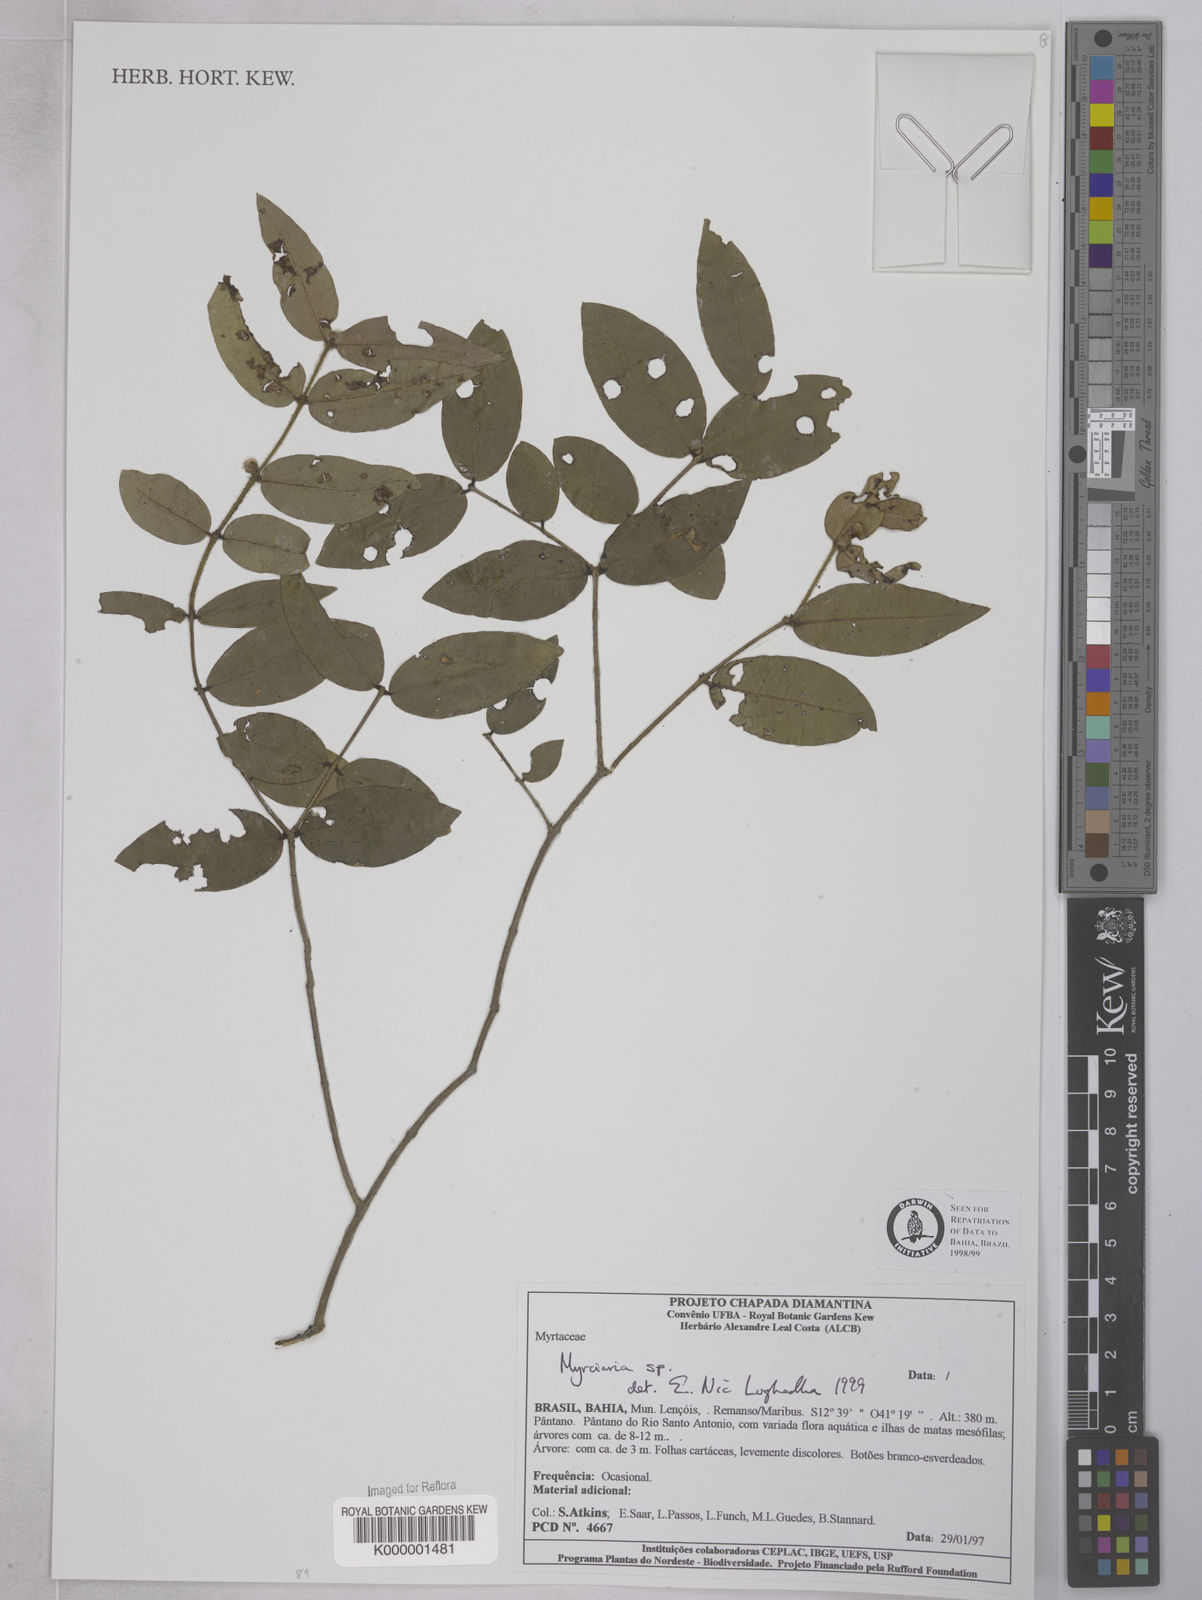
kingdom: Plantae
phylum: Tracheophyta
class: Magnoliopsida
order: Myrtales
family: Myrtaceae
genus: Myrciaria
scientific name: Myrciaria
